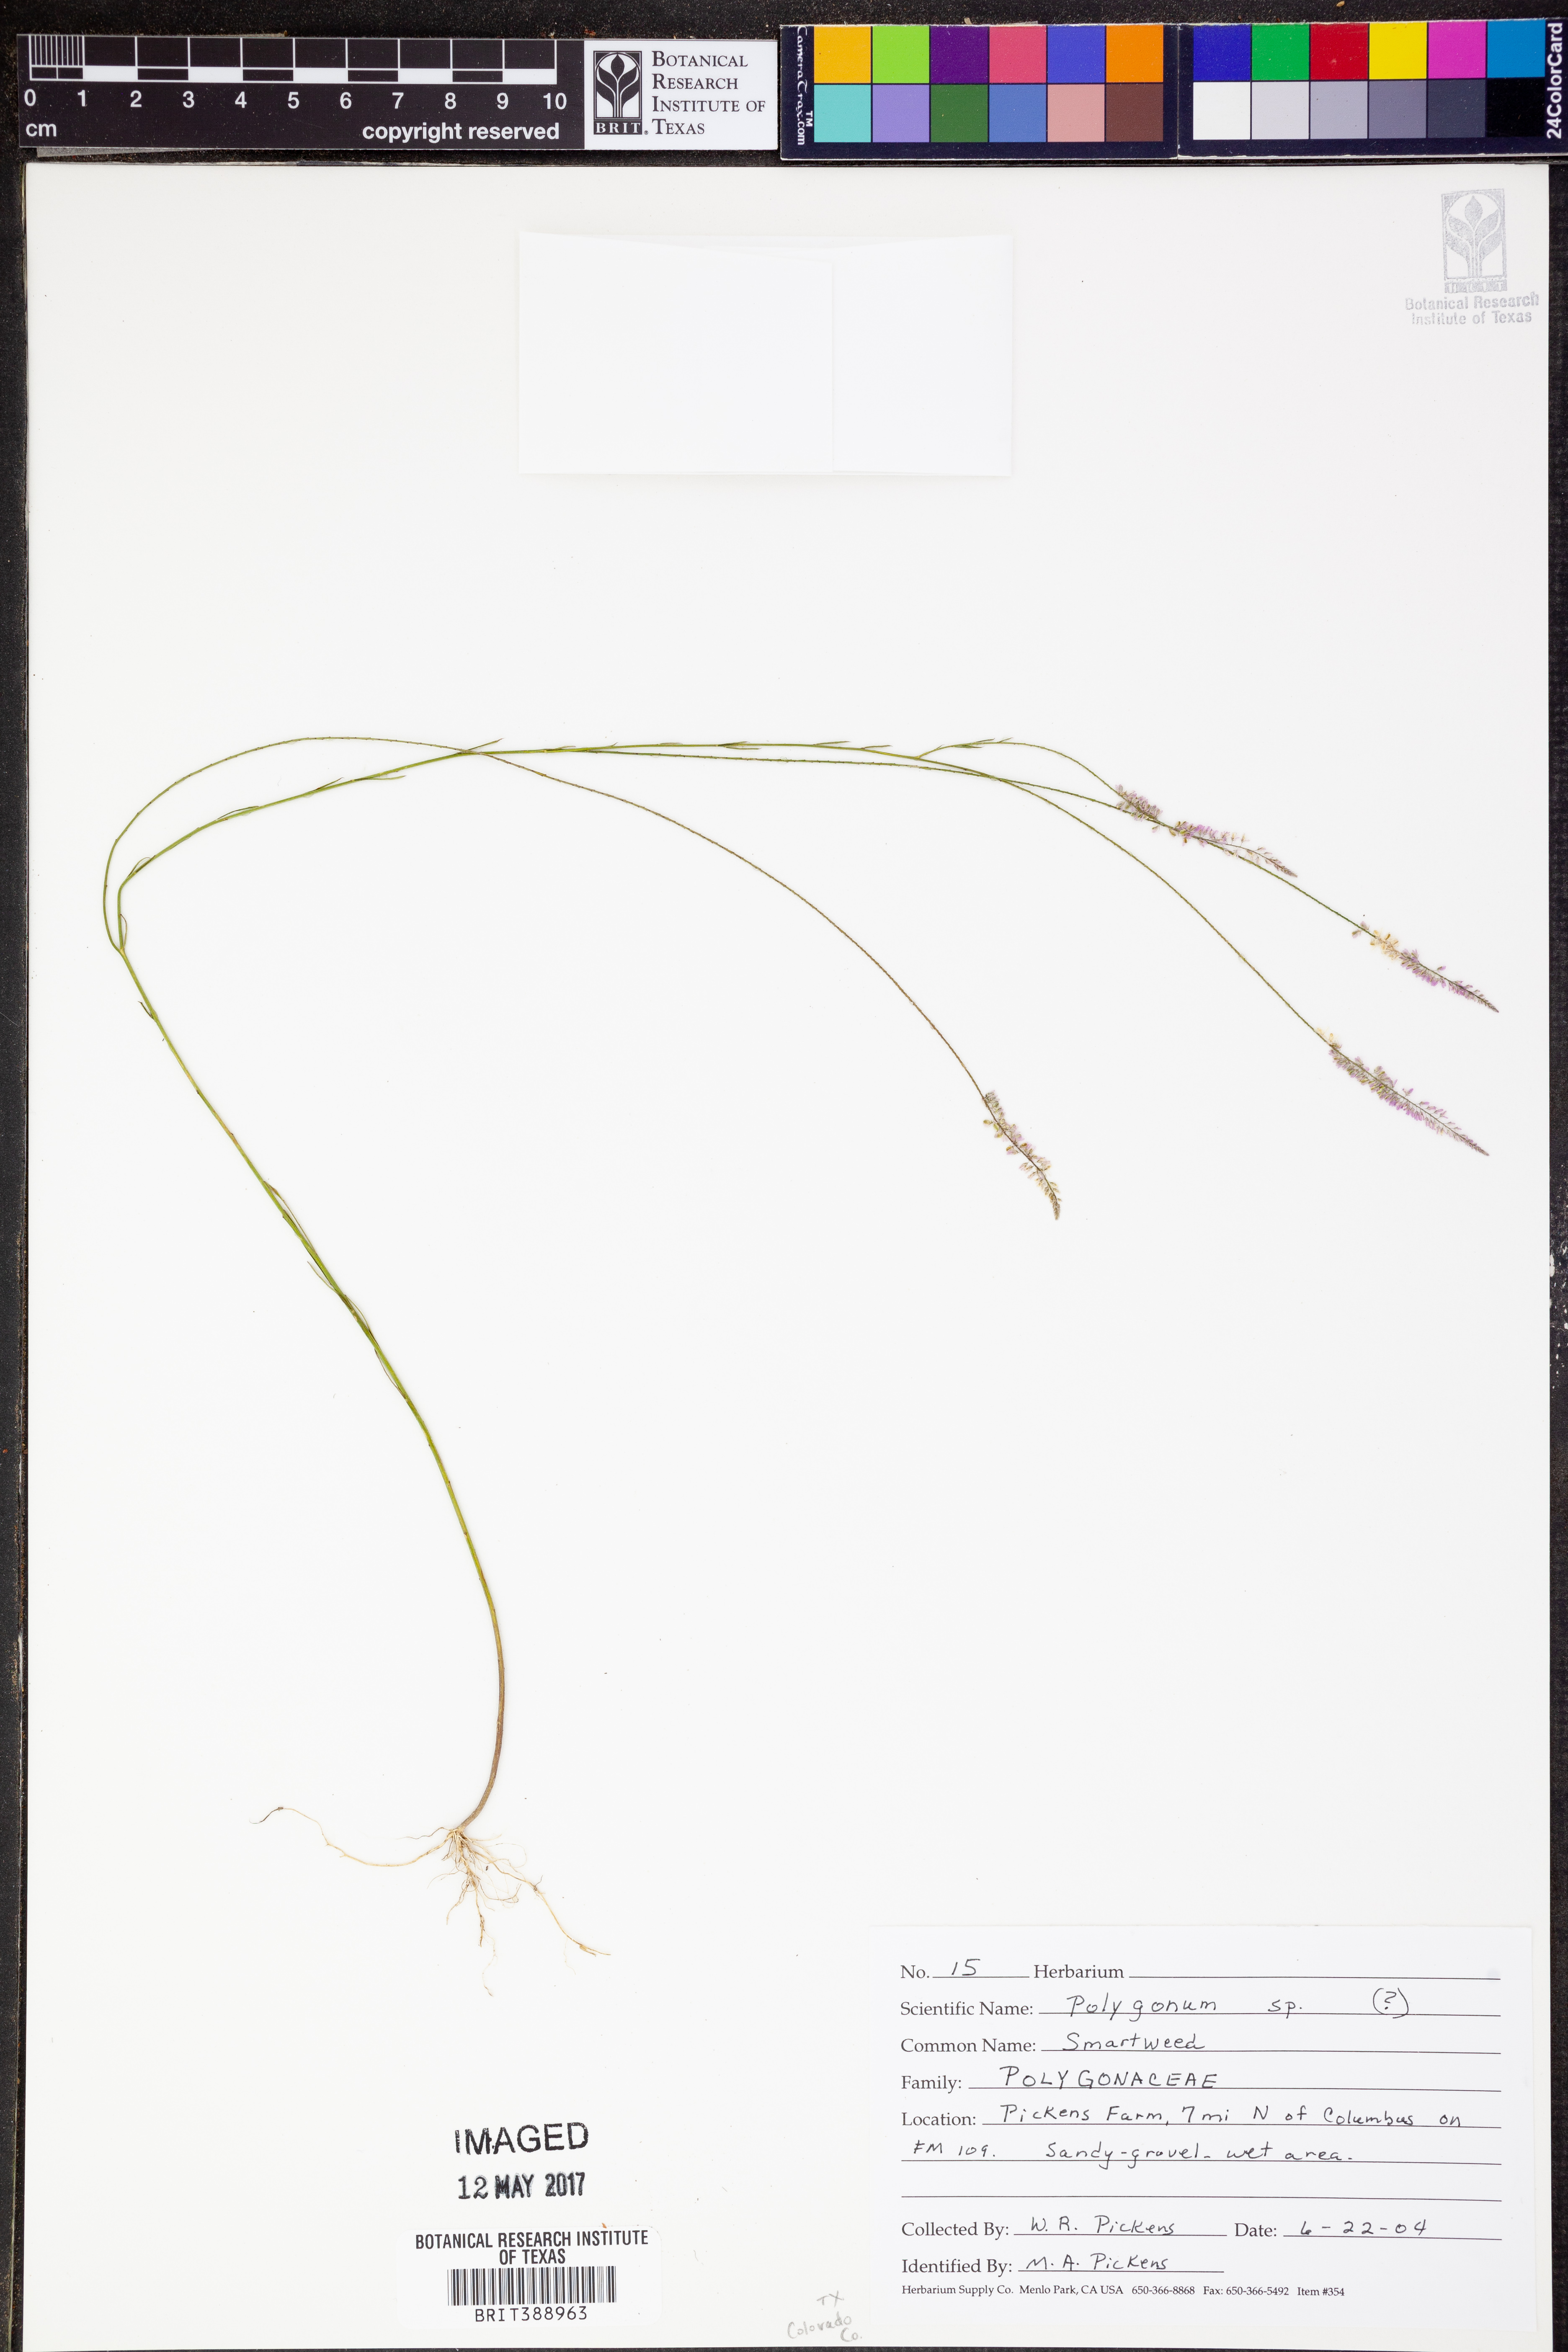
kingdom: Plantae
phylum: Tracheophyta
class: Magnoliopsida
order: Caryophyllales
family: Polygonaceae
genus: Polygonum
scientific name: Polygonum
